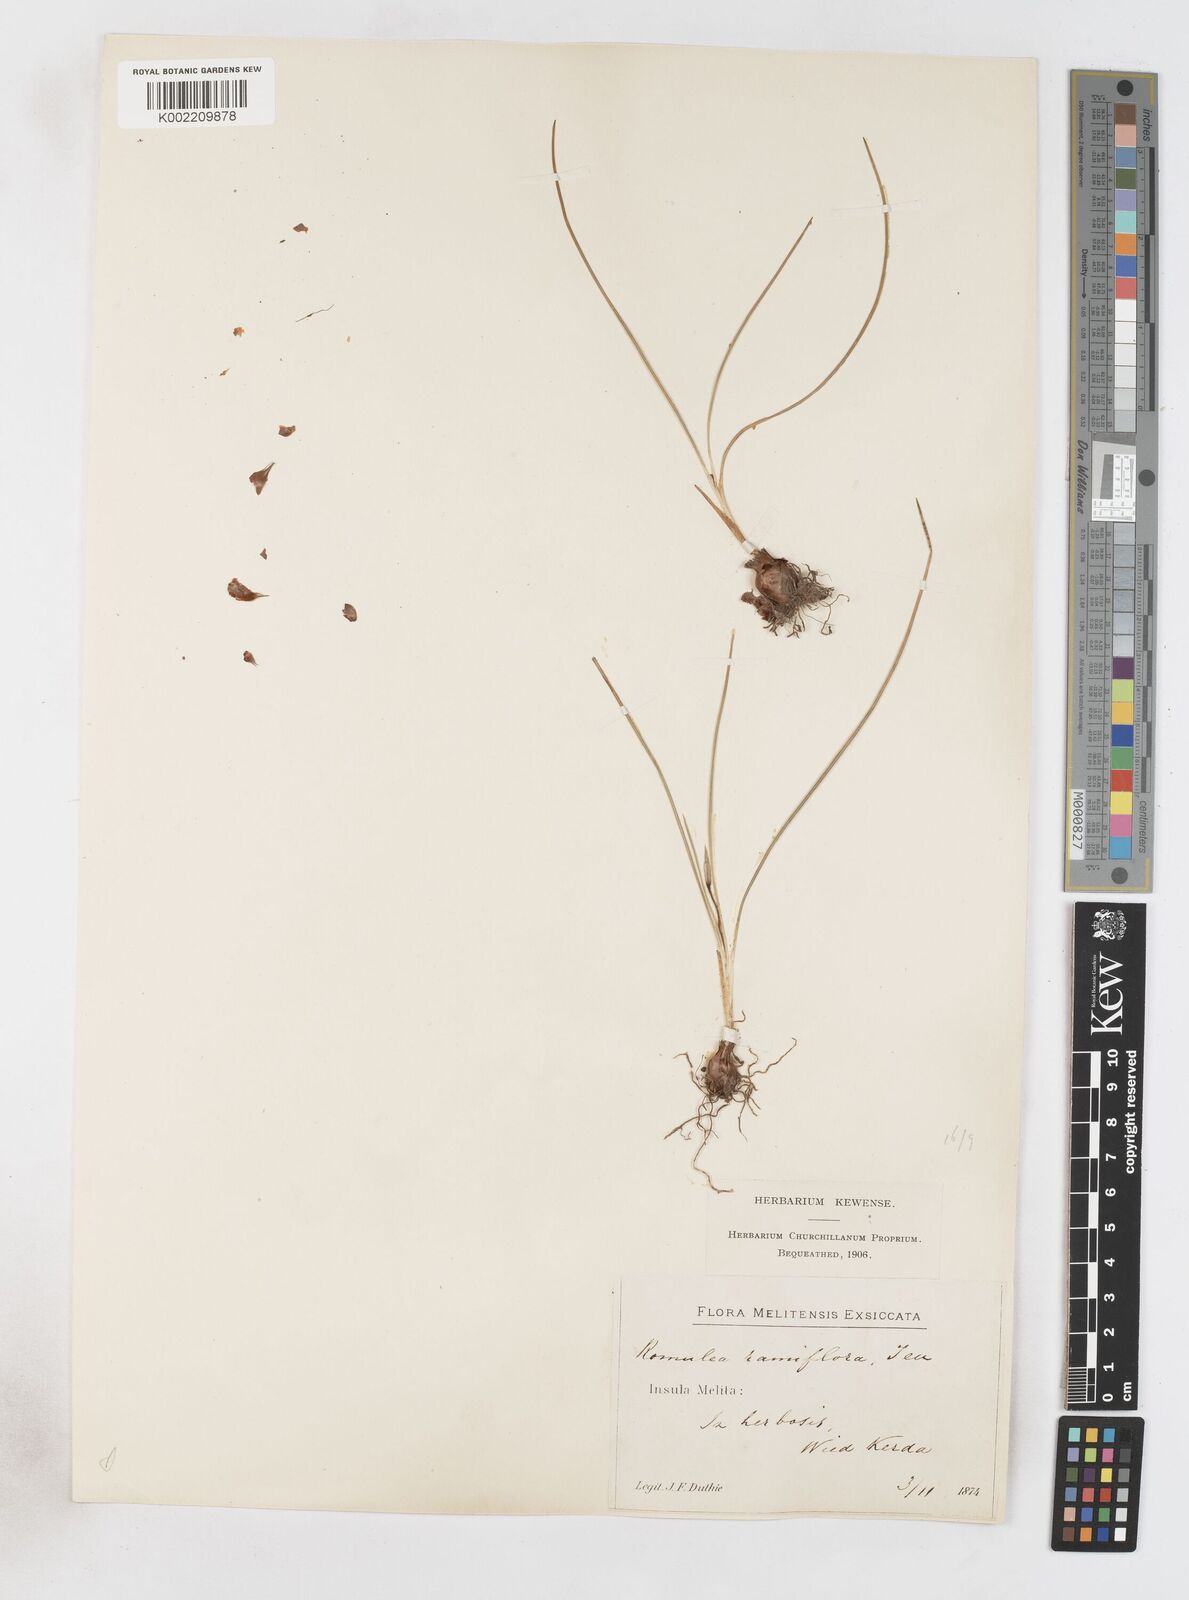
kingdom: Plantae
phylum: Tracheophyta
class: Liliopsida
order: Asparagales
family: Iridaceae
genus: Romulea
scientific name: Romulea melitensis
